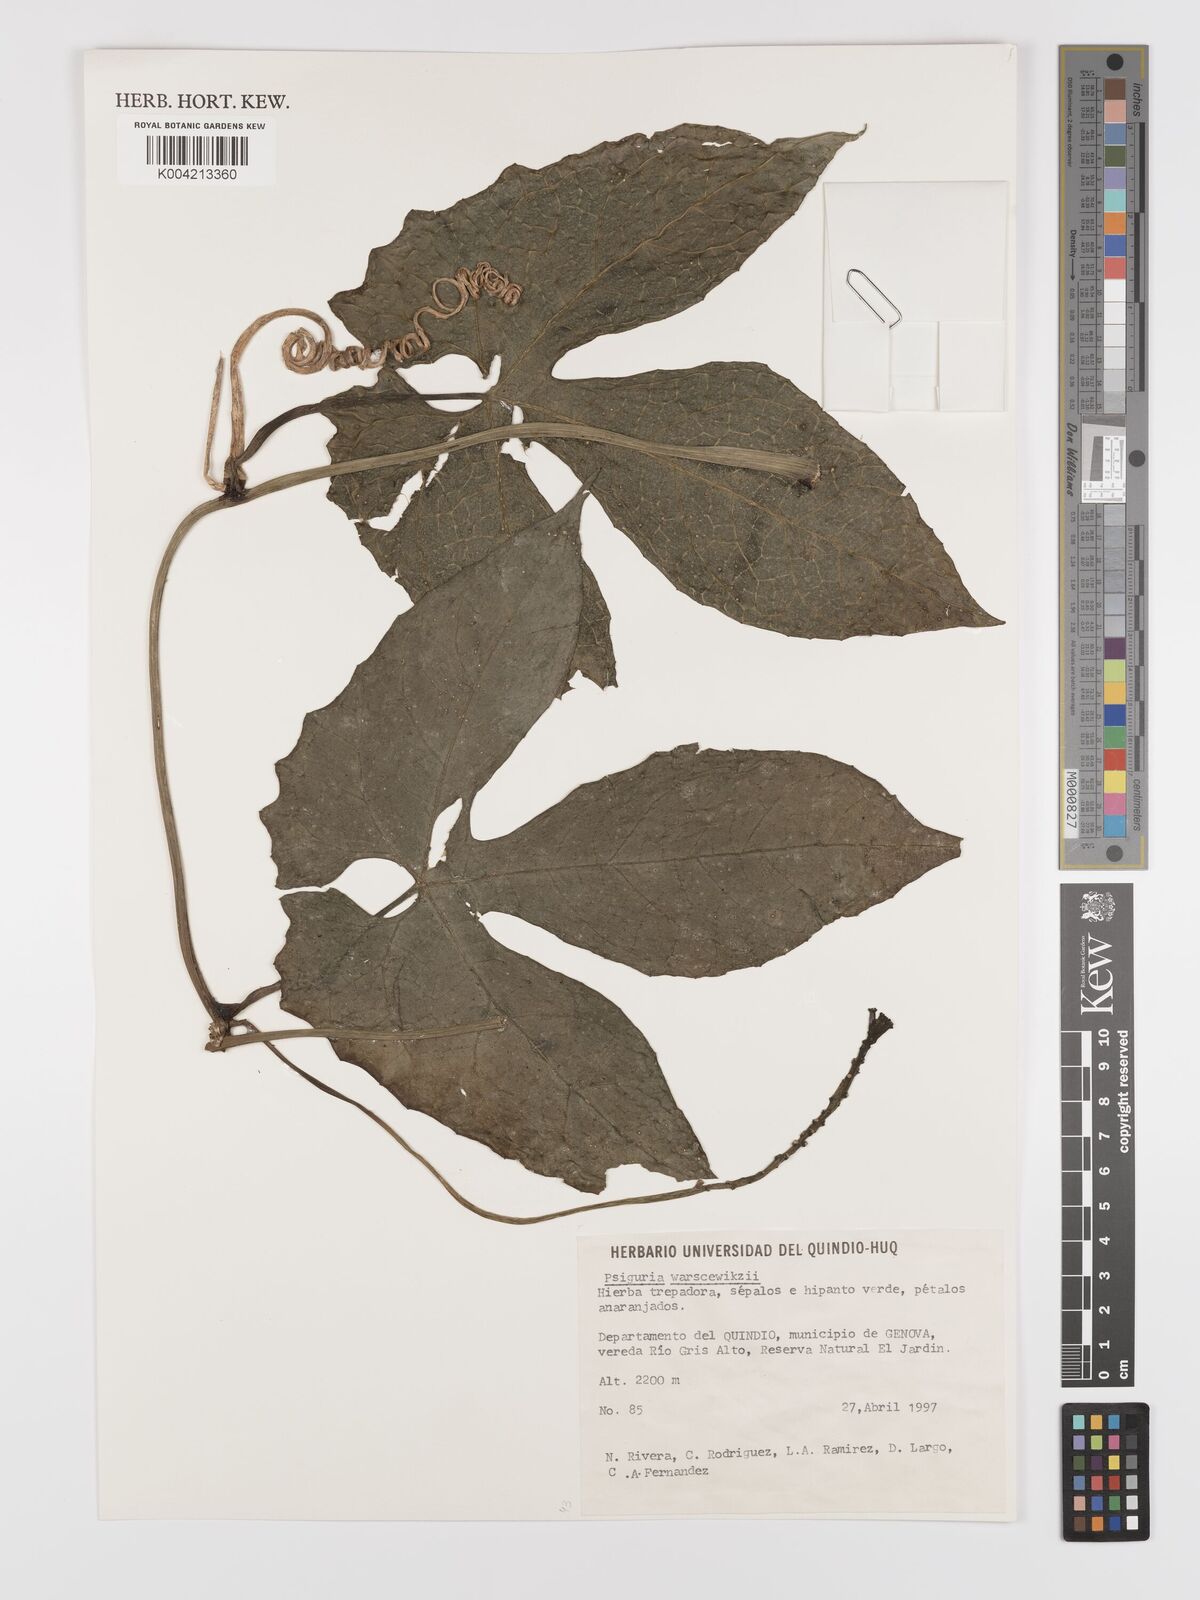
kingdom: Plantae
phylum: Tracheophyta
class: Magnoliopsida
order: Cucurbitales
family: Cucurbitaceae
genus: Psiguria
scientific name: Psiguria warscewiczii
